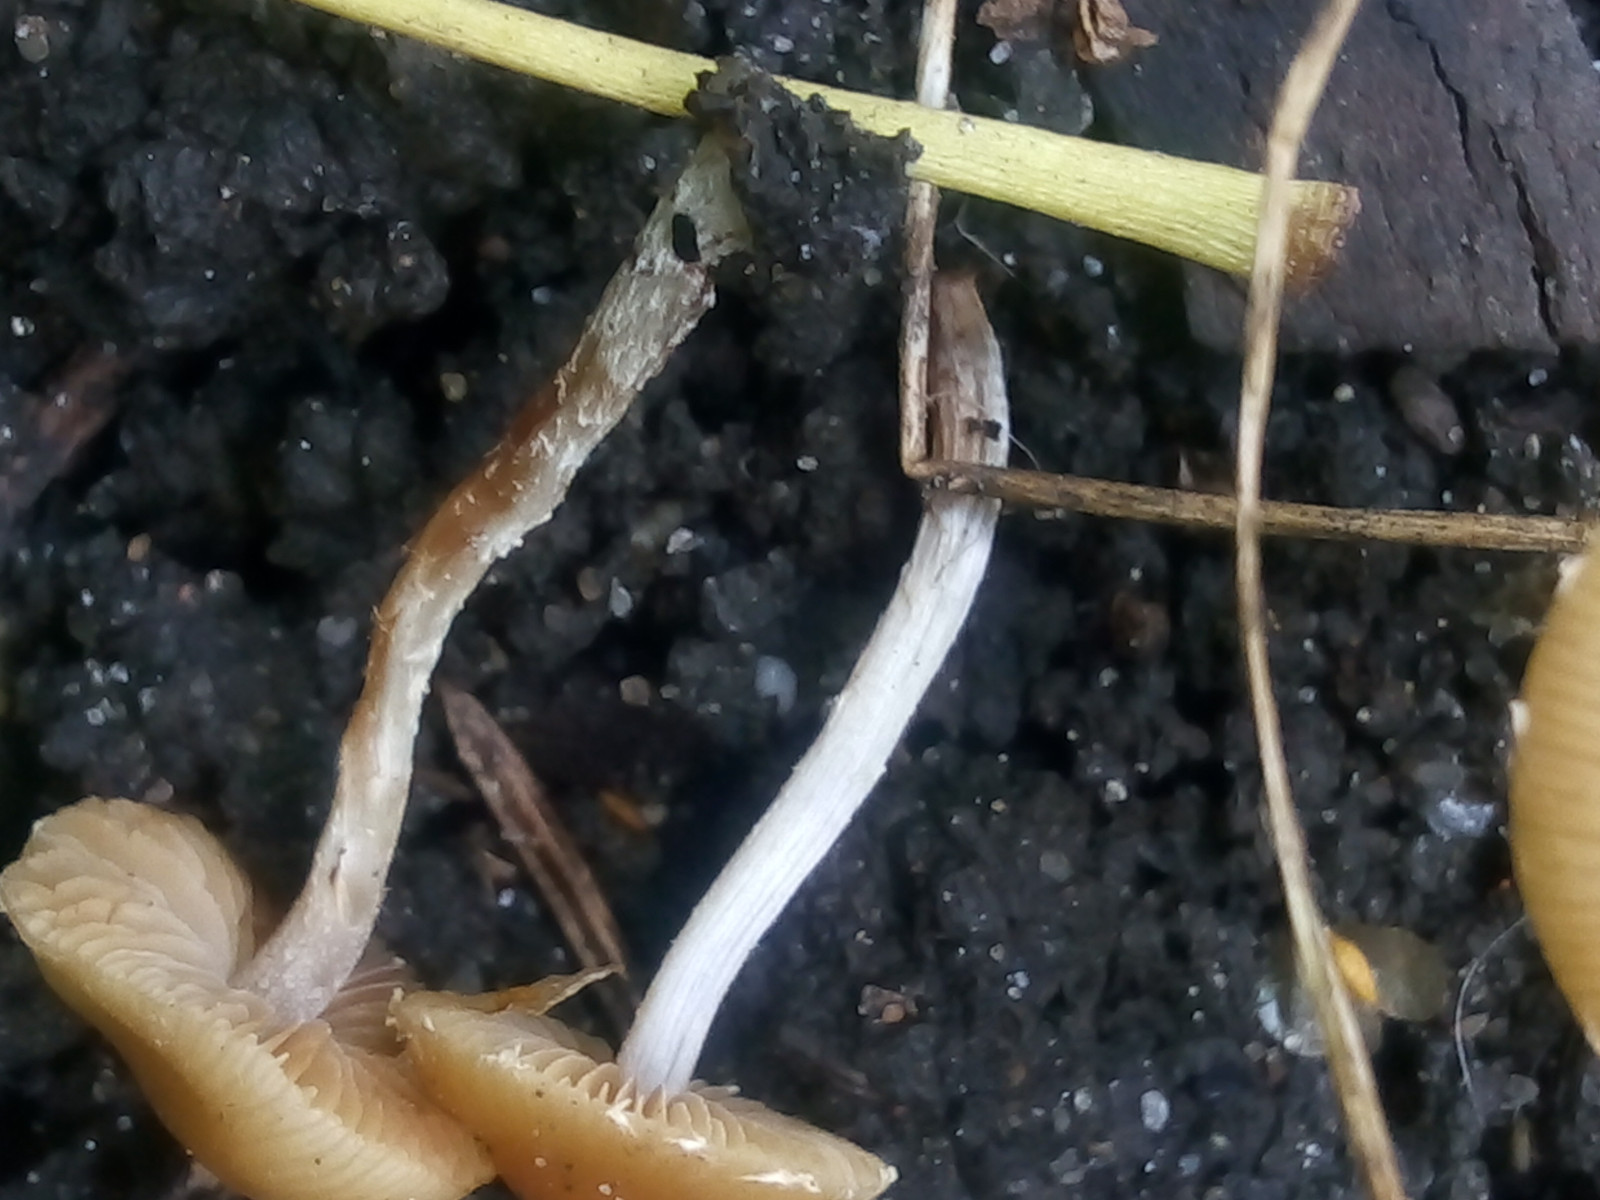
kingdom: Fungi
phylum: Basidiomycota
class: Agaricomycetes
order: Agaricales
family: Bolbitiaceae
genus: Conocybe
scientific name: Conocybe velata
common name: tandet dansehat
